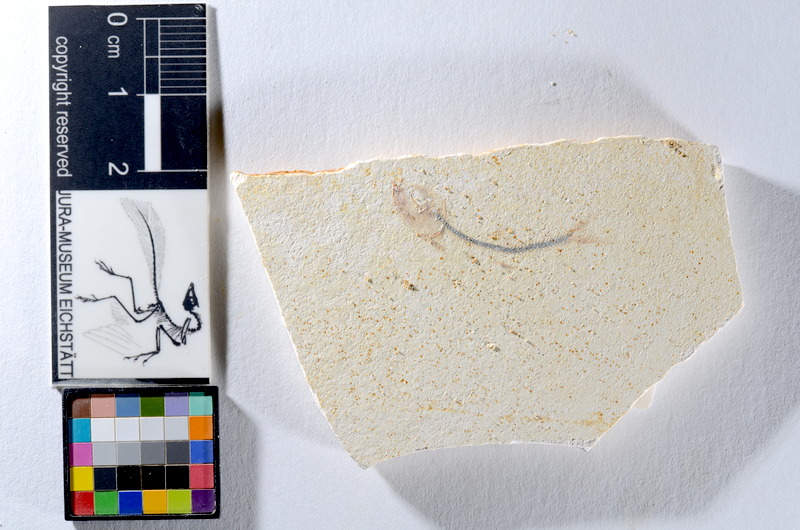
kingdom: Animalia
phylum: Chordata
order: Salmoniformes
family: Orthogonikleithridae
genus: Orthogonikleithrus
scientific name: Orthogonikleithrus hoelli
